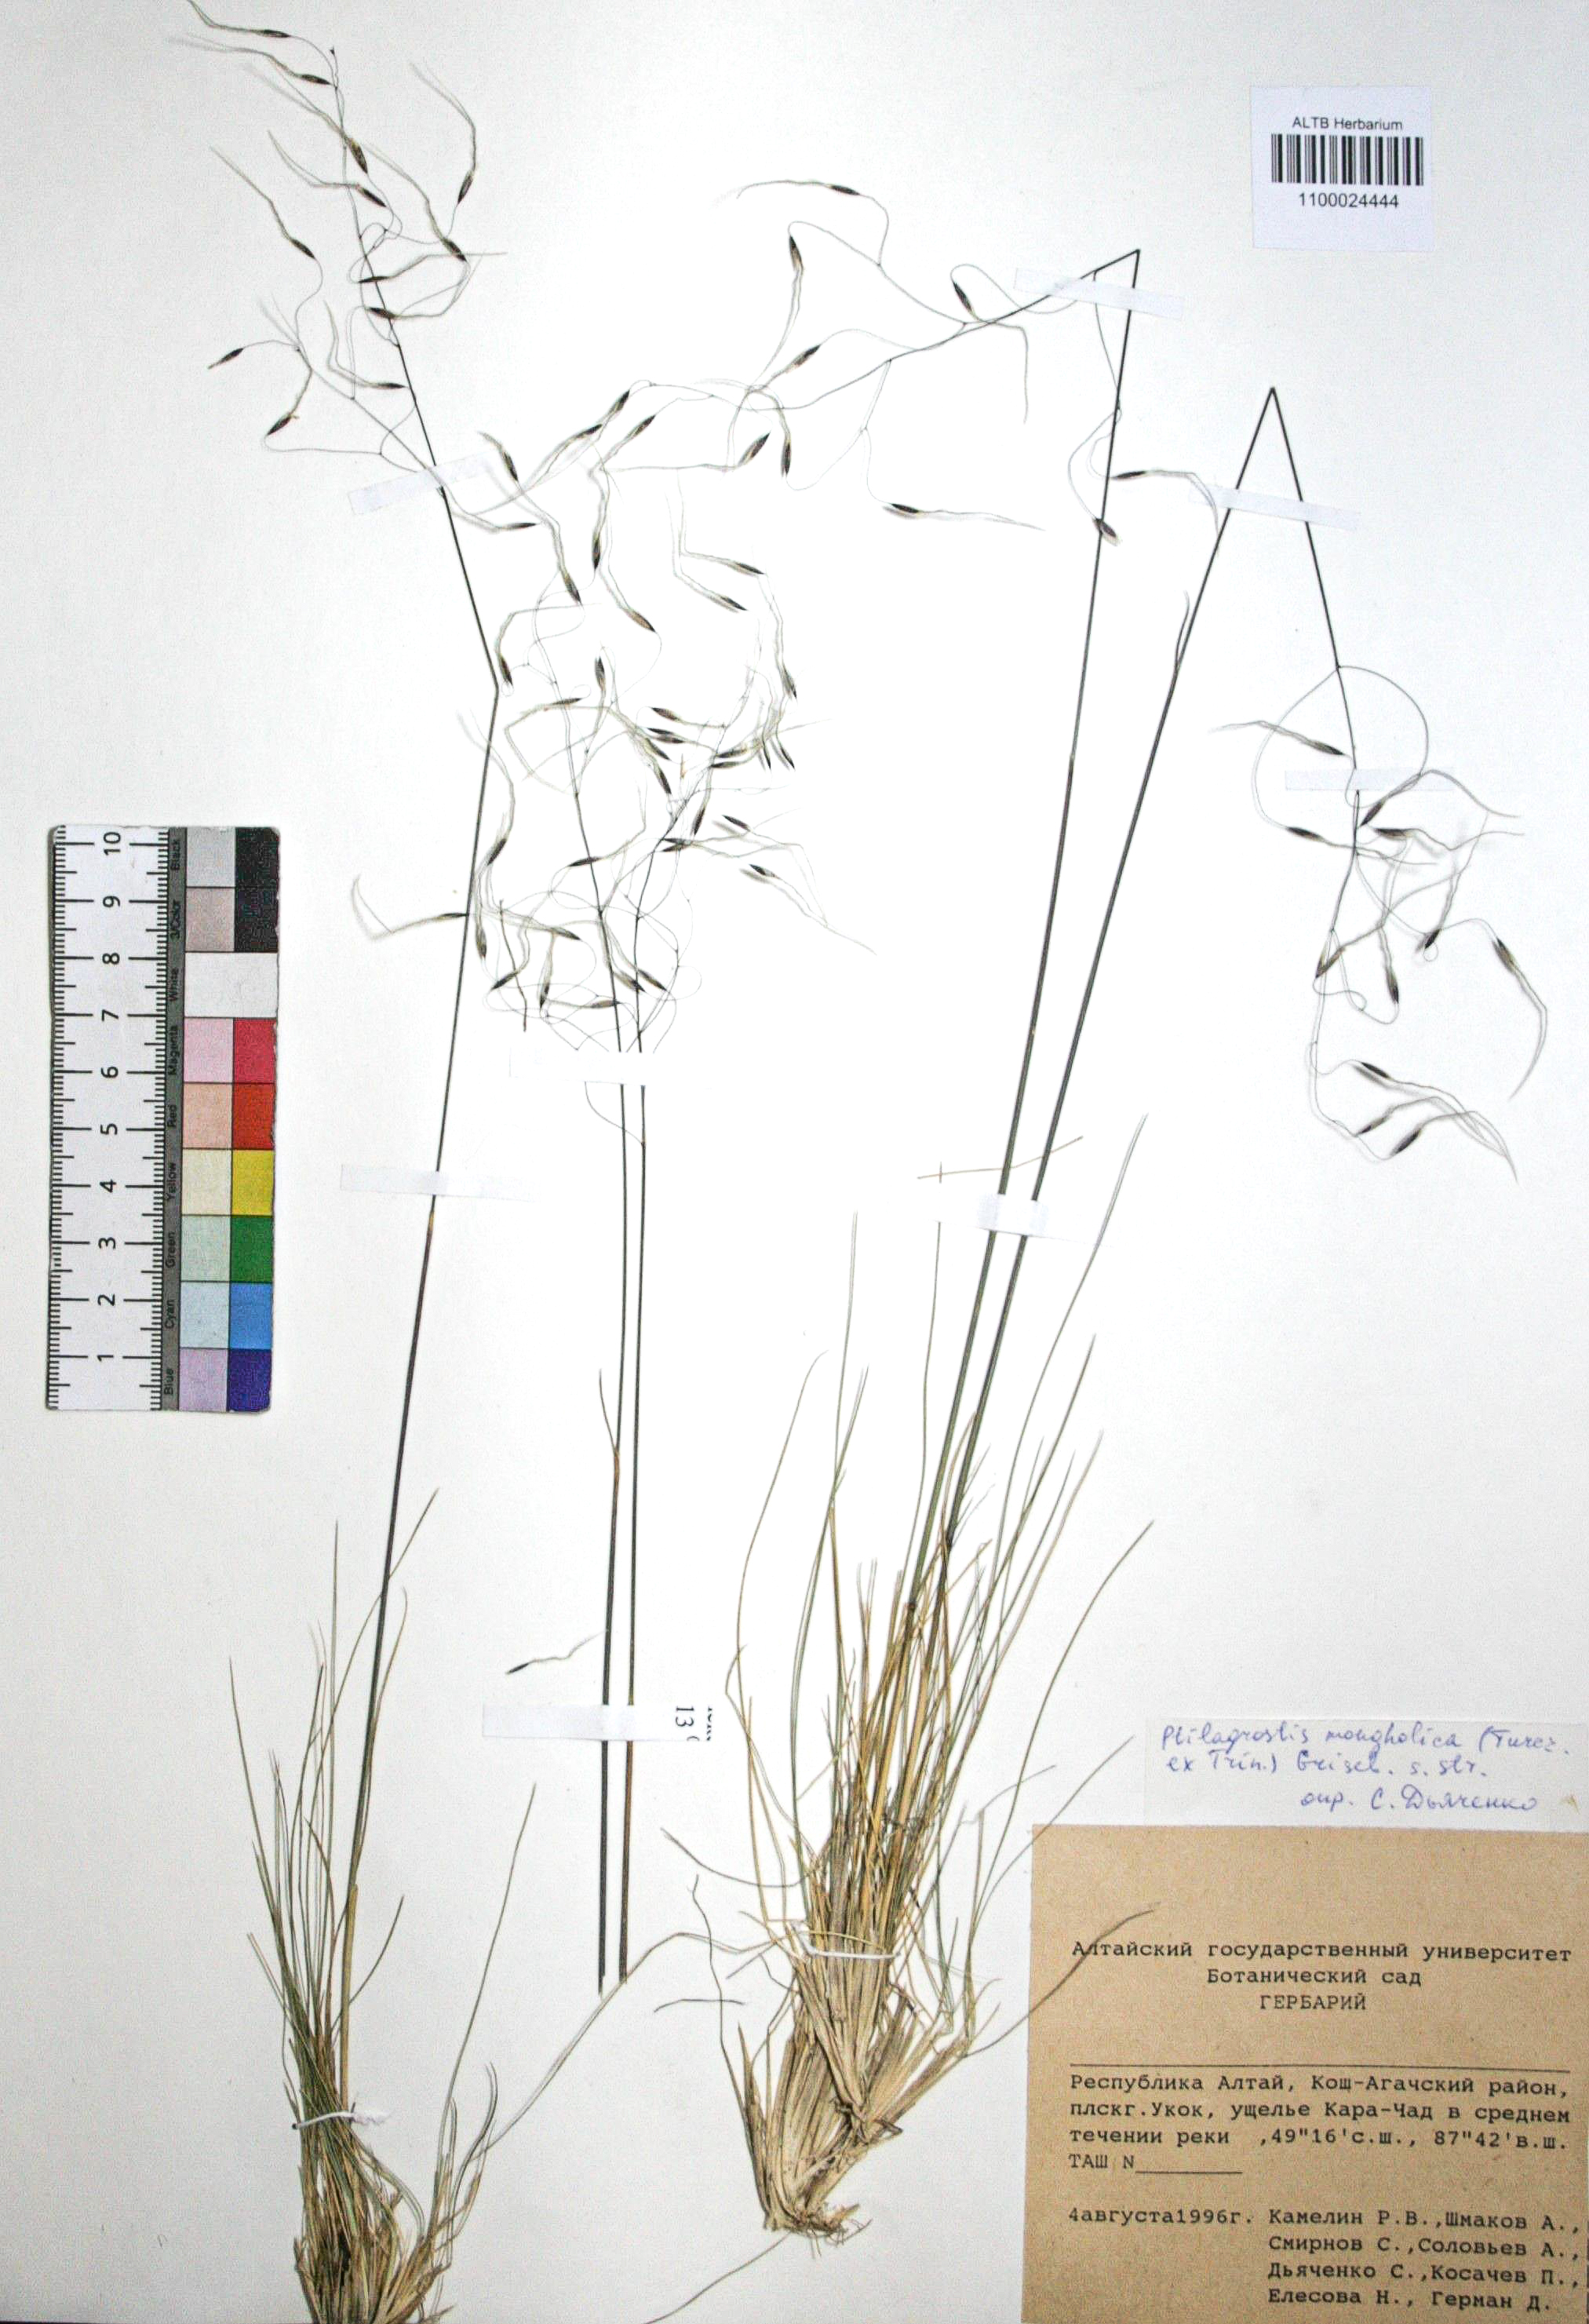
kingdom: Plantae
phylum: Tracheophyta
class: Liliopsida
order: Poales
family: Poaceae
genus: Ptilagrostis
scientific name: Ptilagrostis mongholica
